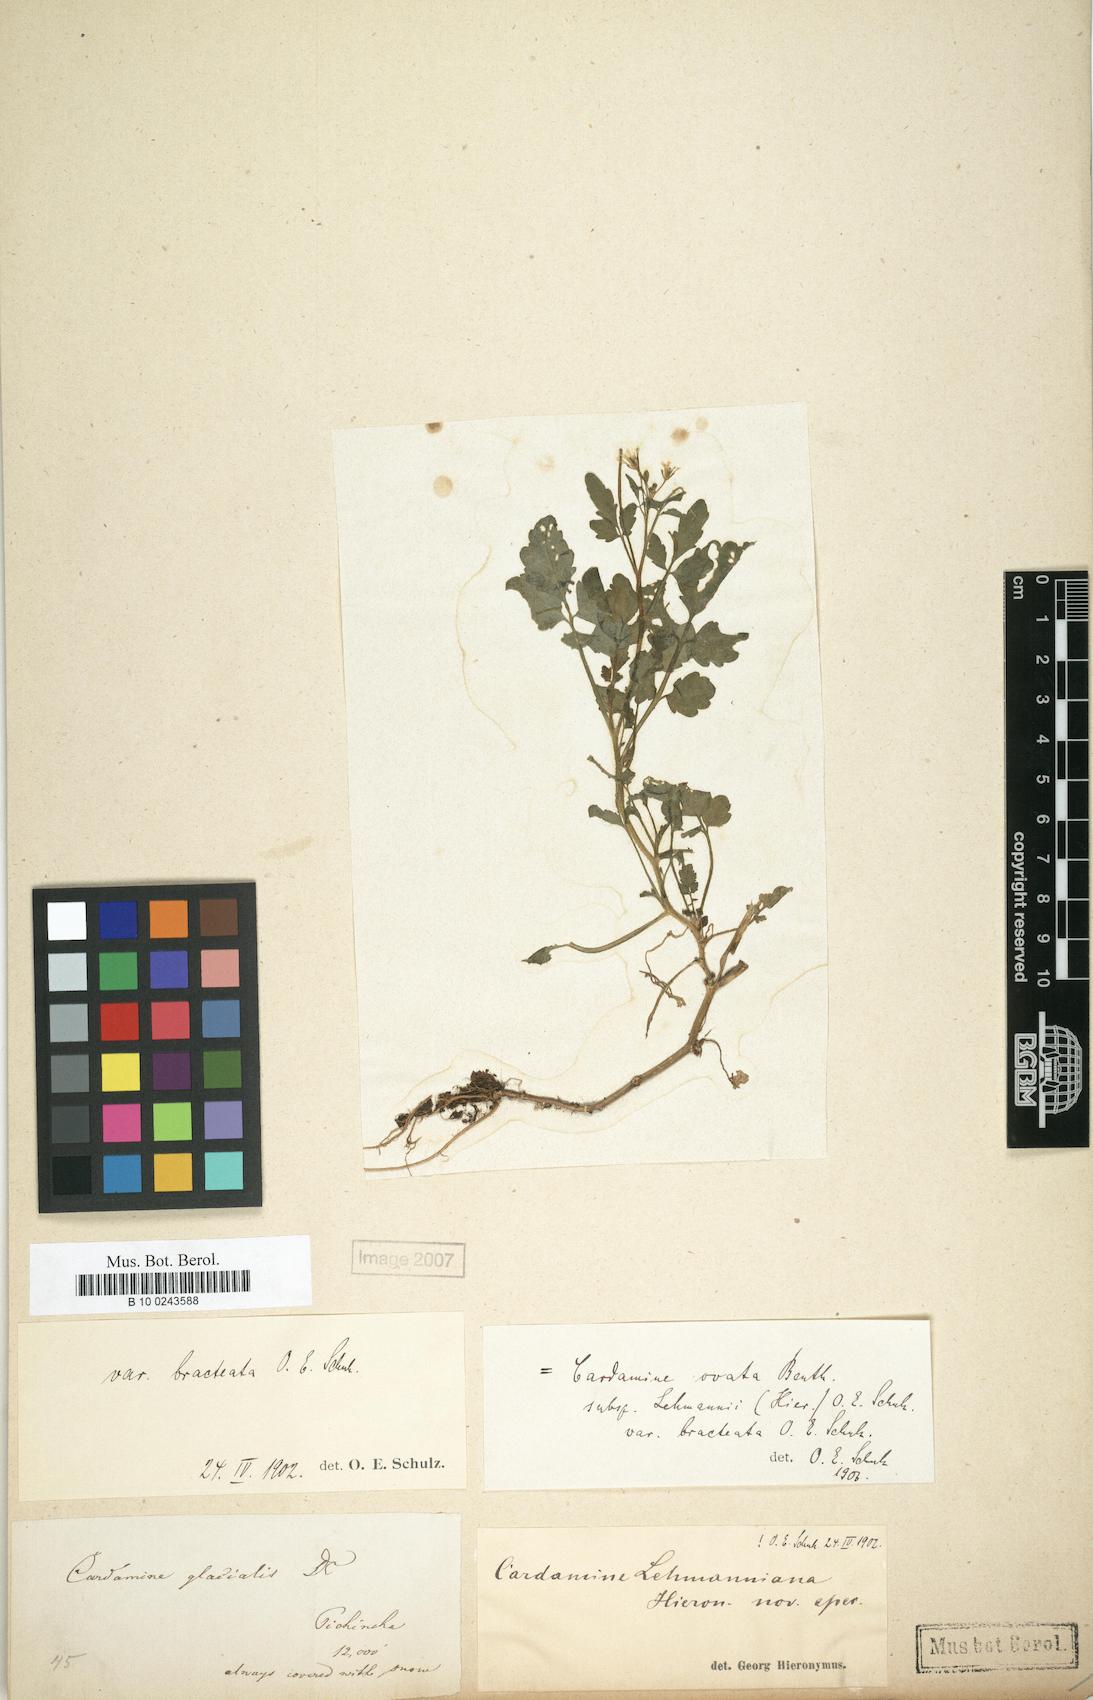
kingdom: Plantae
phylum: Tracheophyta
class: Magnoliopsida
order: Brassicales
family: Brassicaceae
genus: Cardamine
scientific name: Cardamine ovata
